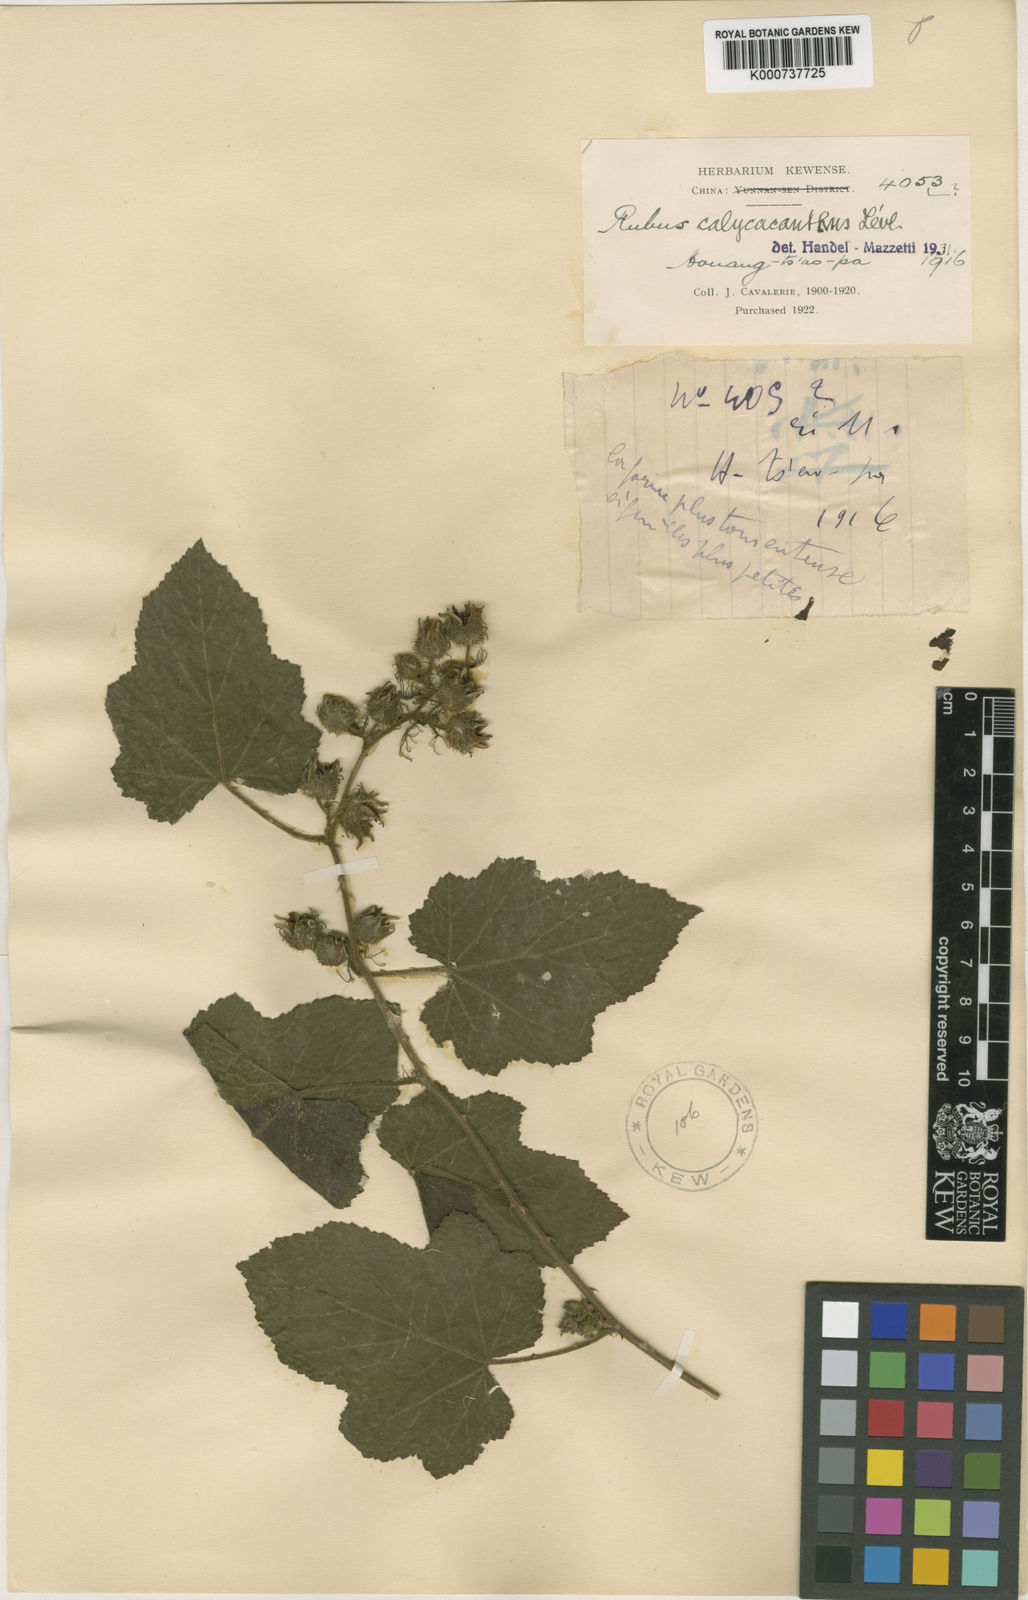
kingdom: Plantae
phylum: Tracheophyta
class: Magnoliopsida
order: Rosales
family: Rosaceae
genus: Rubus
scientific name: Rubus
